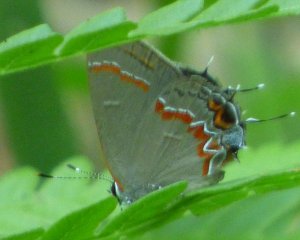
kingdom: Animalia
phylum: Arthropoda
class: Insecta
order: Lepidoptera
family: Lycaenidae
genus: Calycopis
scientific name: Calycopis cecrops
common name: Red-banded Hairstreak
